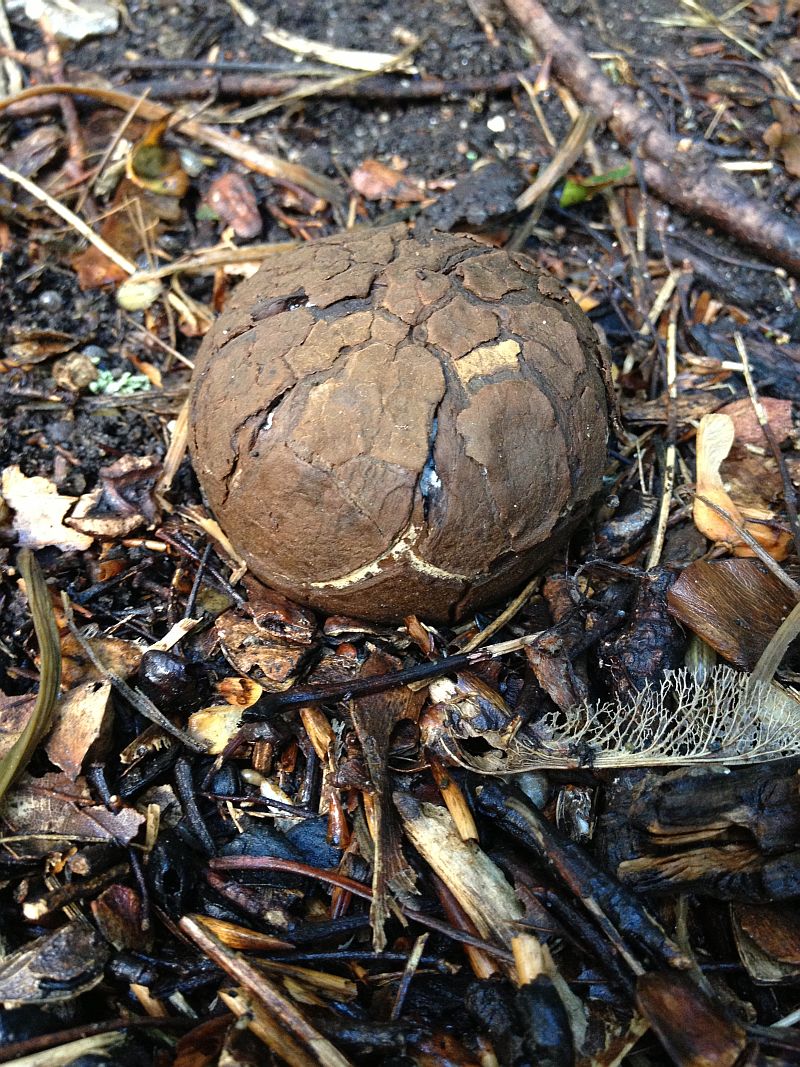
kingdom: Fungi
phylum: Basidiomycota
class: Agaricomycetes
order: Geastrales
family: Geastraceae
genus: Geastrum
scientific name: Geastrum melanocephalum
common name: håret stjernebold
